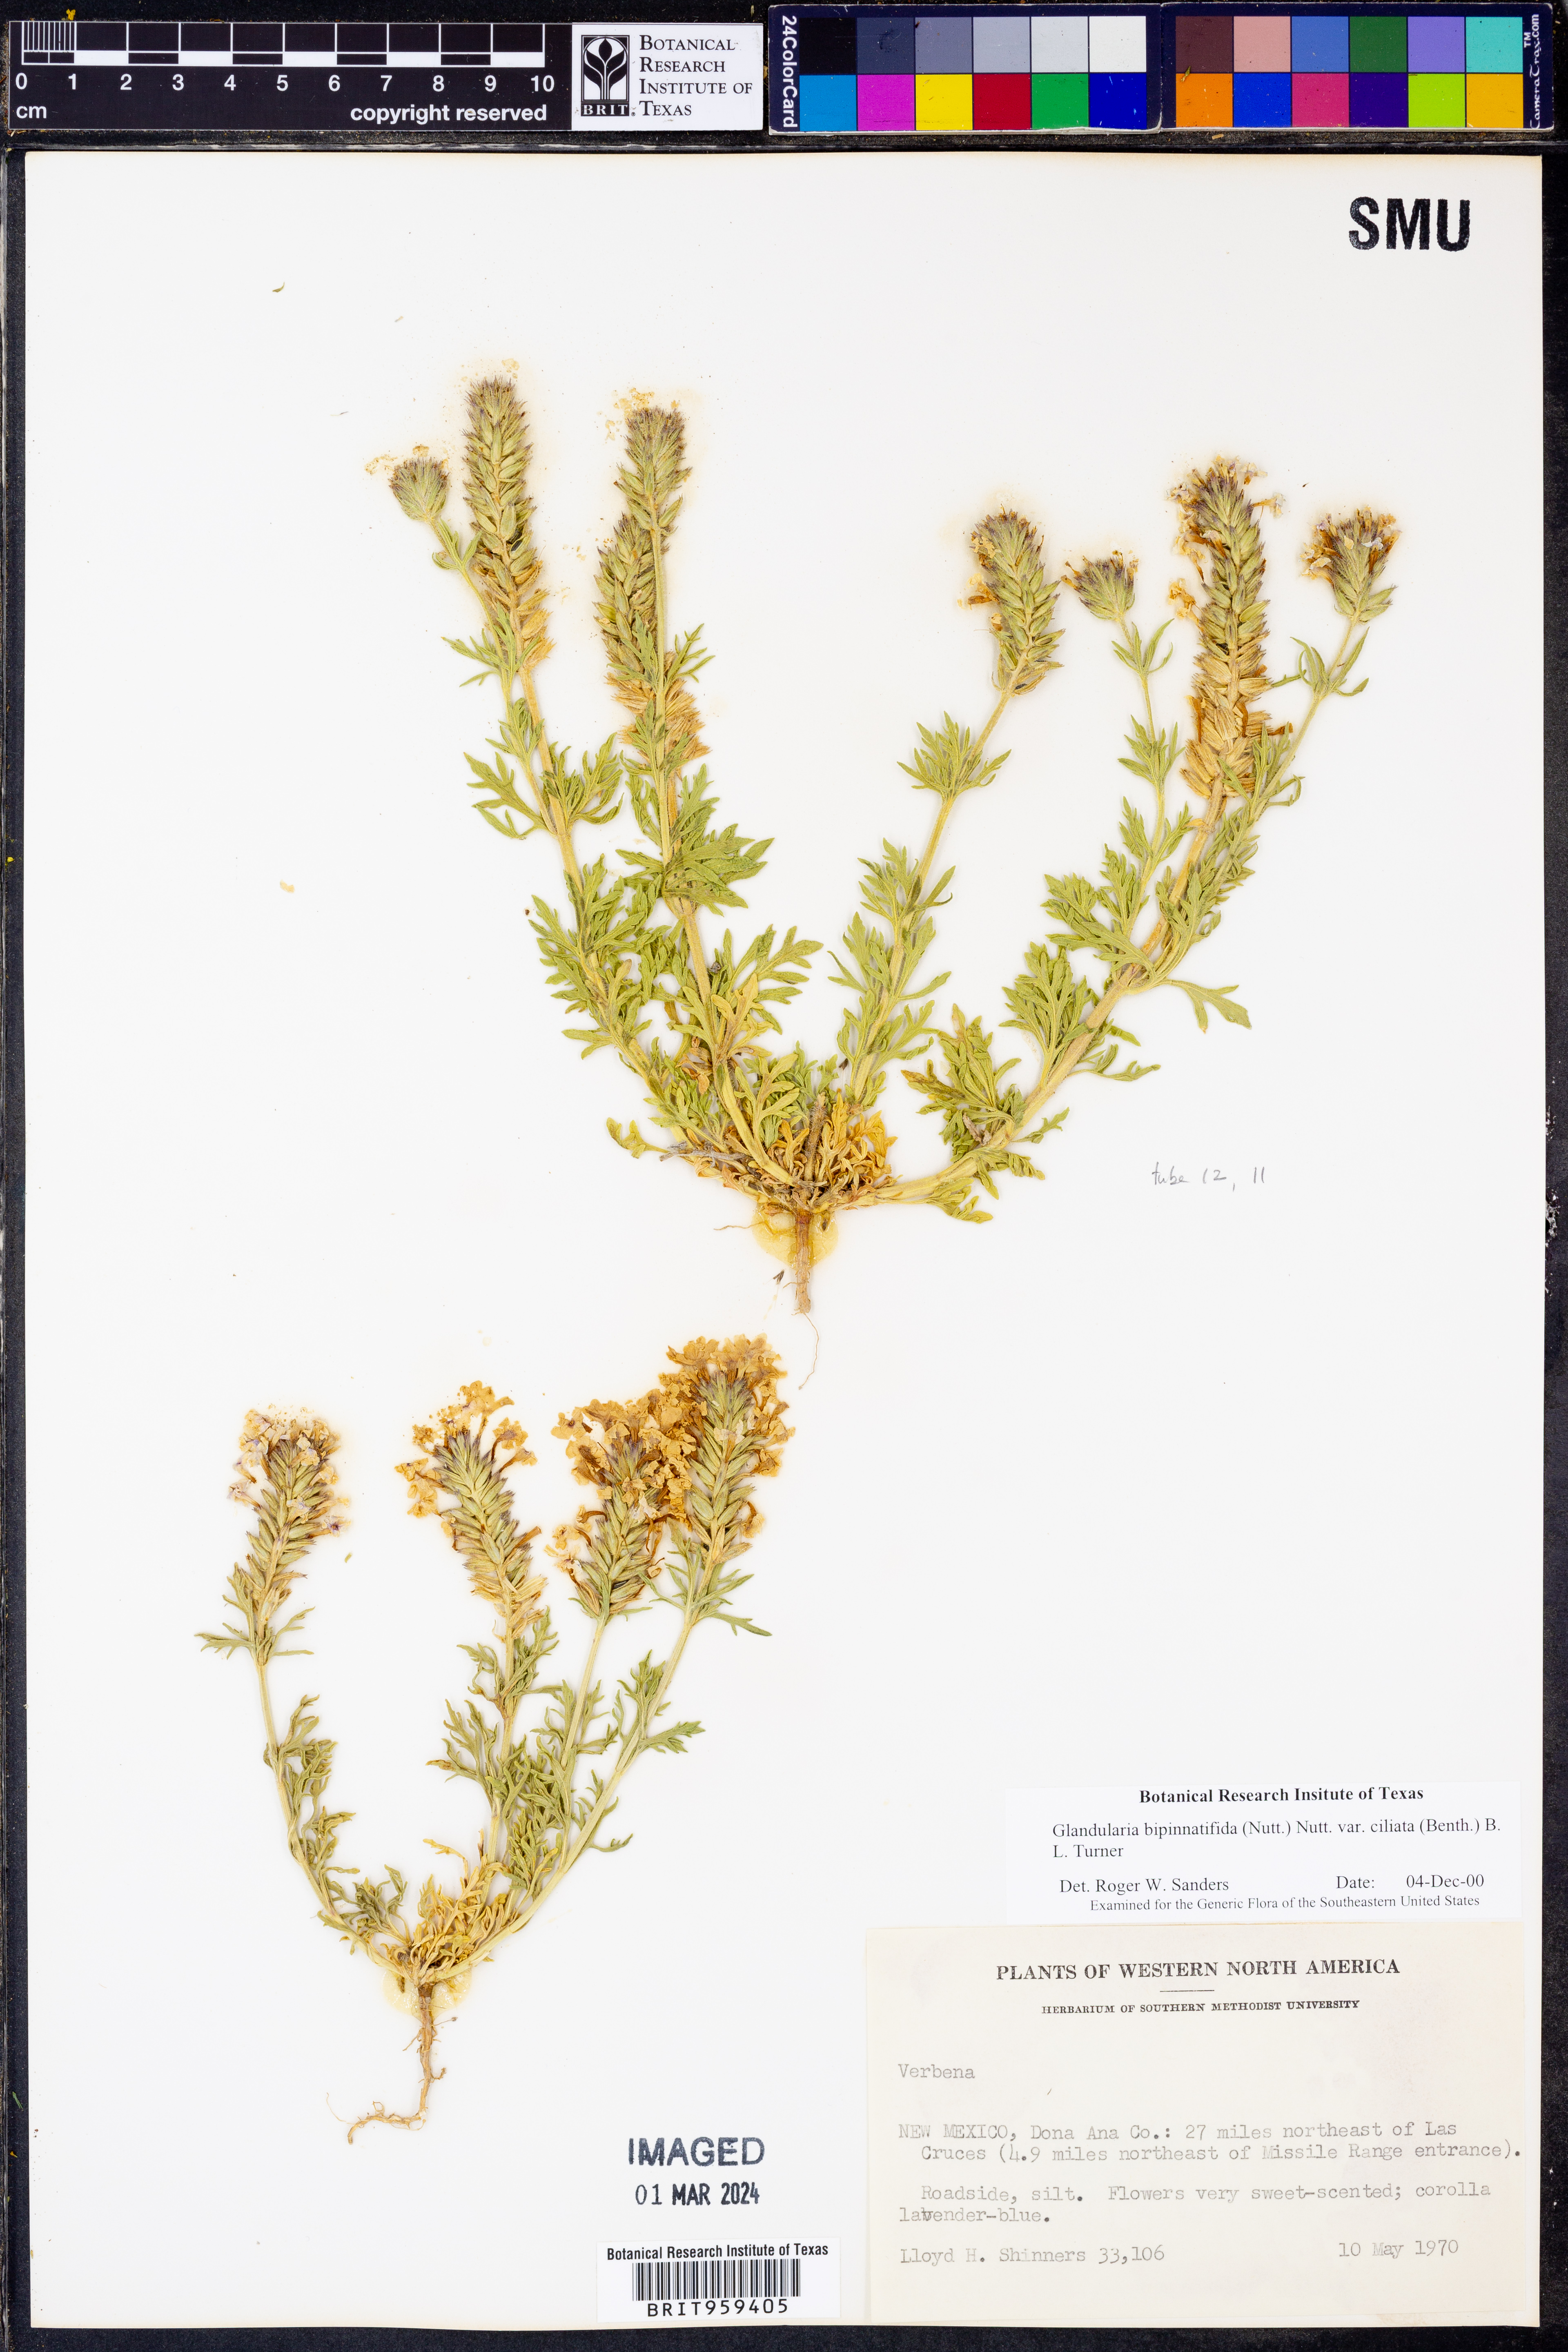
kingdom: Plantae
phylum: Tracheophyta
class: Magnoliopsida
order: Lamiales
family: Verbenaceae
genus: Verbena
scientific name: Verbena bipinnatifida
